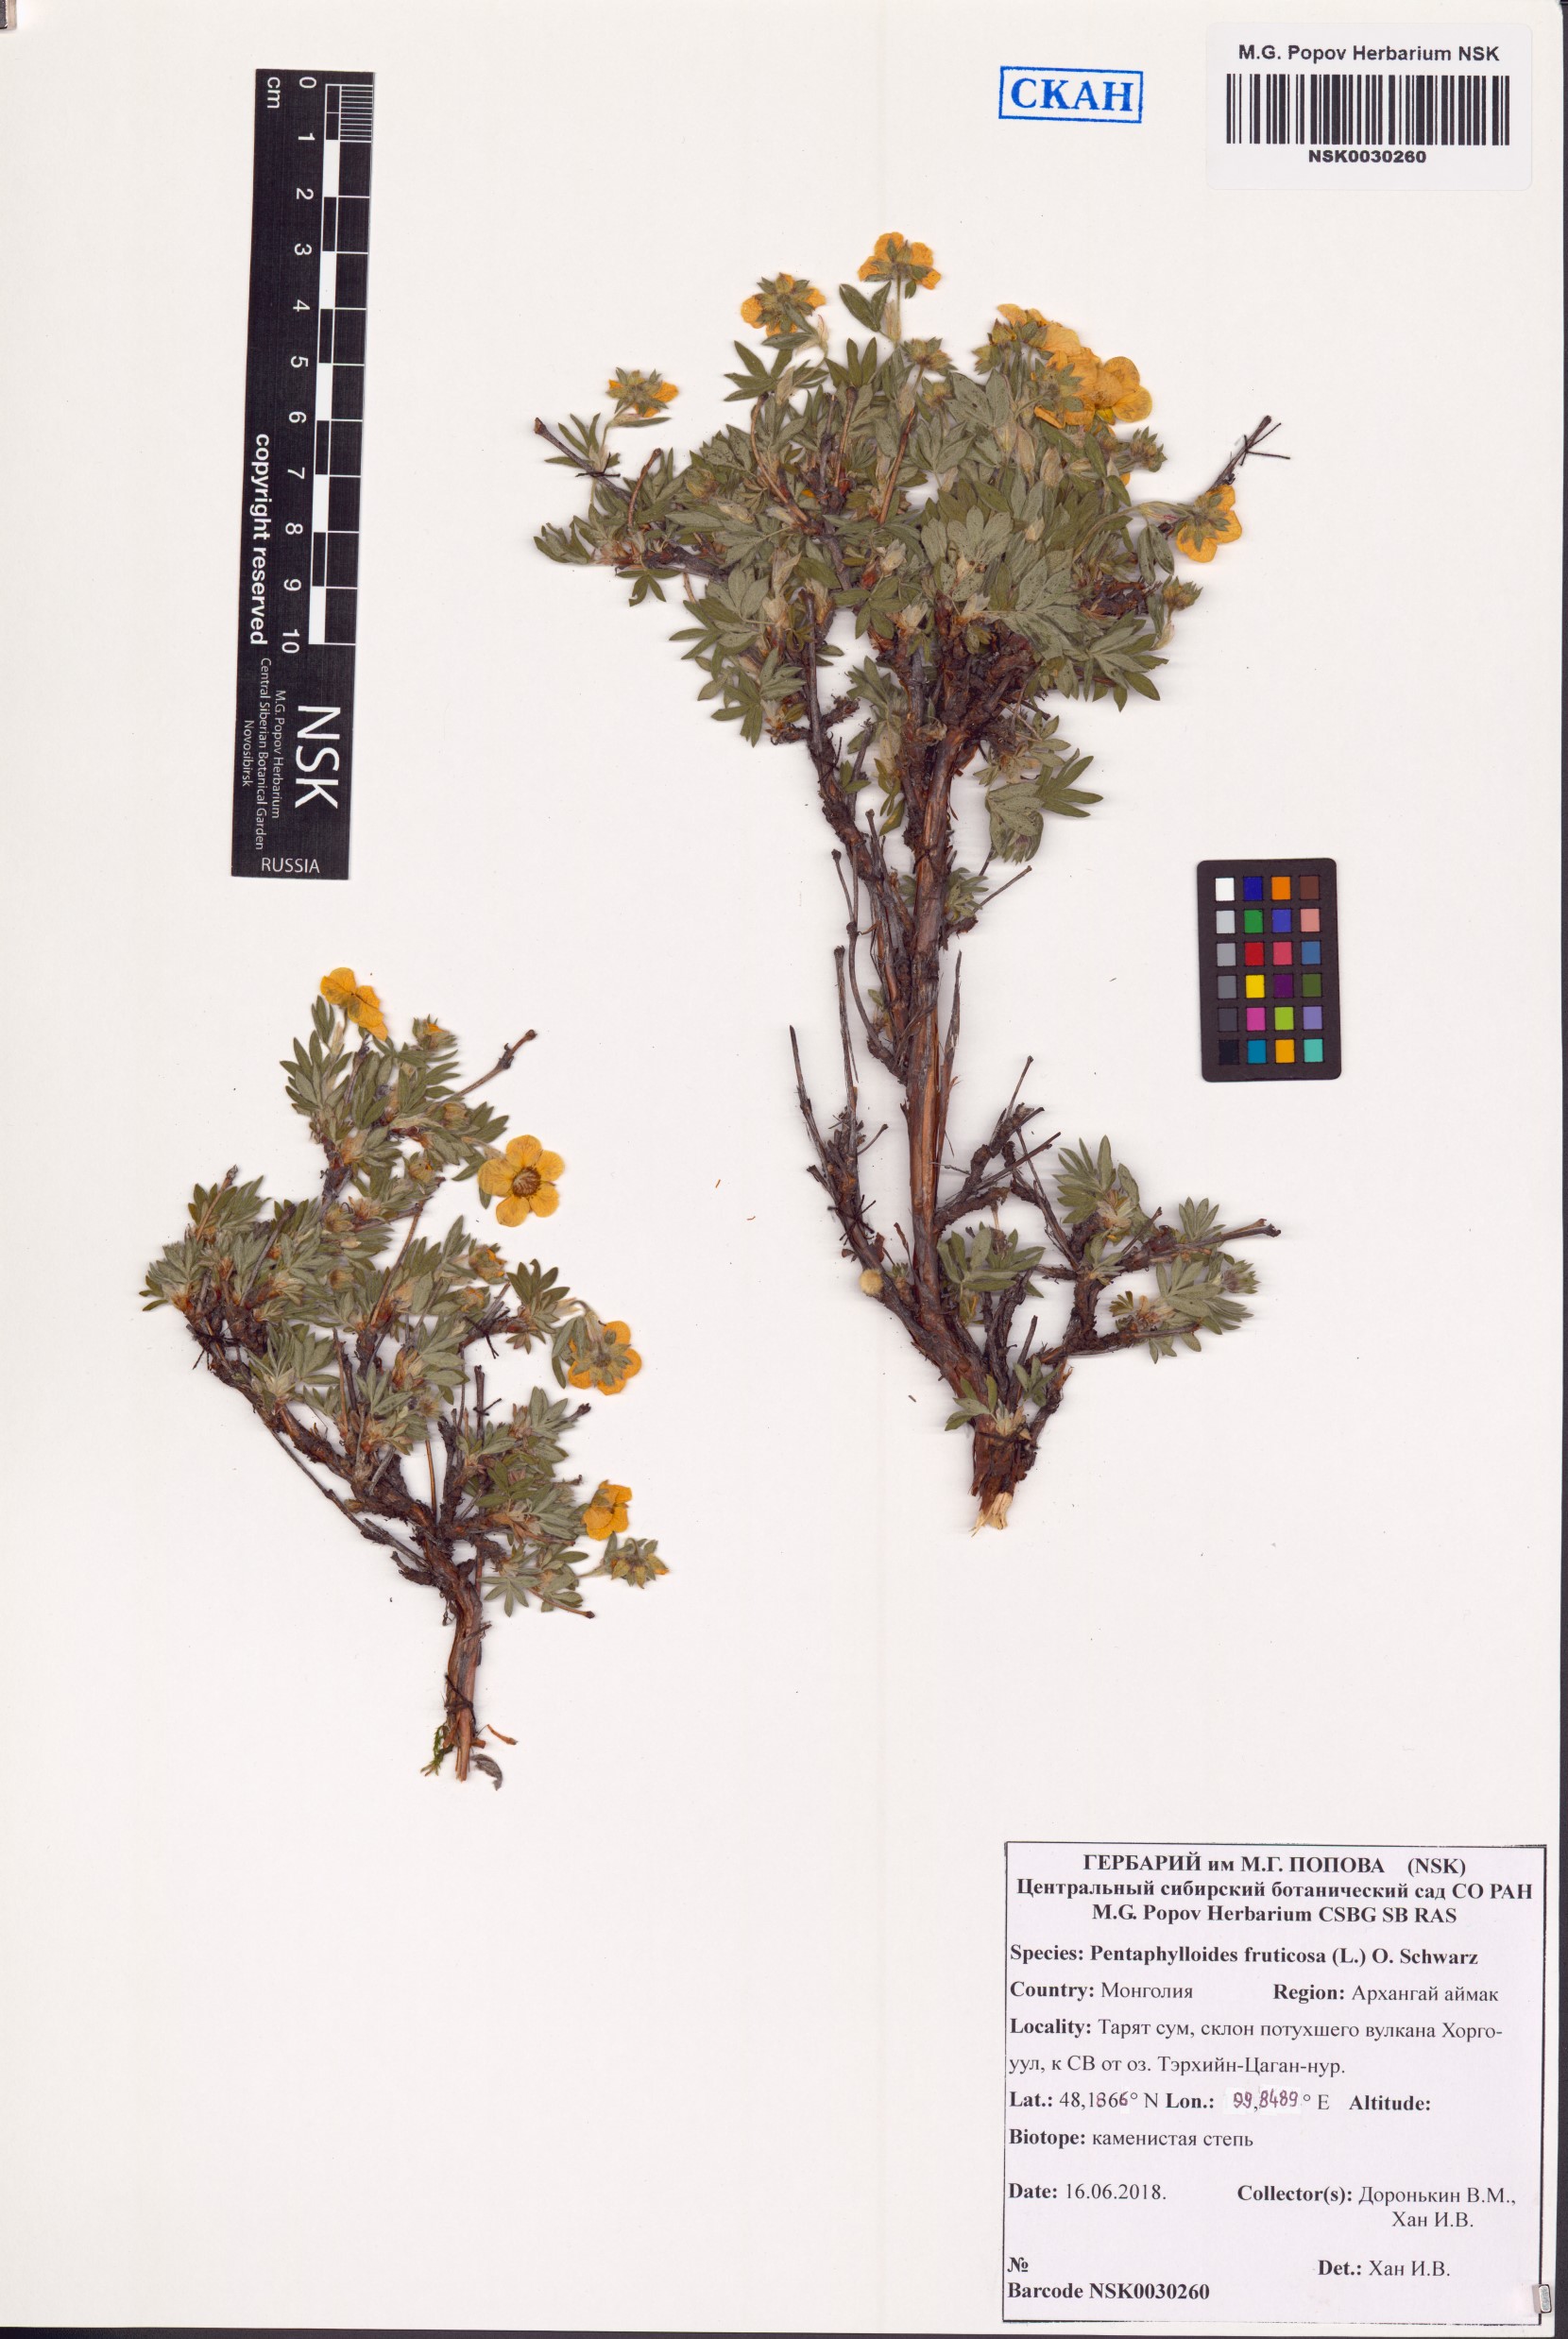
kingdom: Plantae
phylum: Tracheophyta
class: Magnoliopsida
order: Rosales
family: Rosaceae
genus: Dasiphora
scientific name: Dasiphora fruticosa
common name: Shrubby cinquefoil
